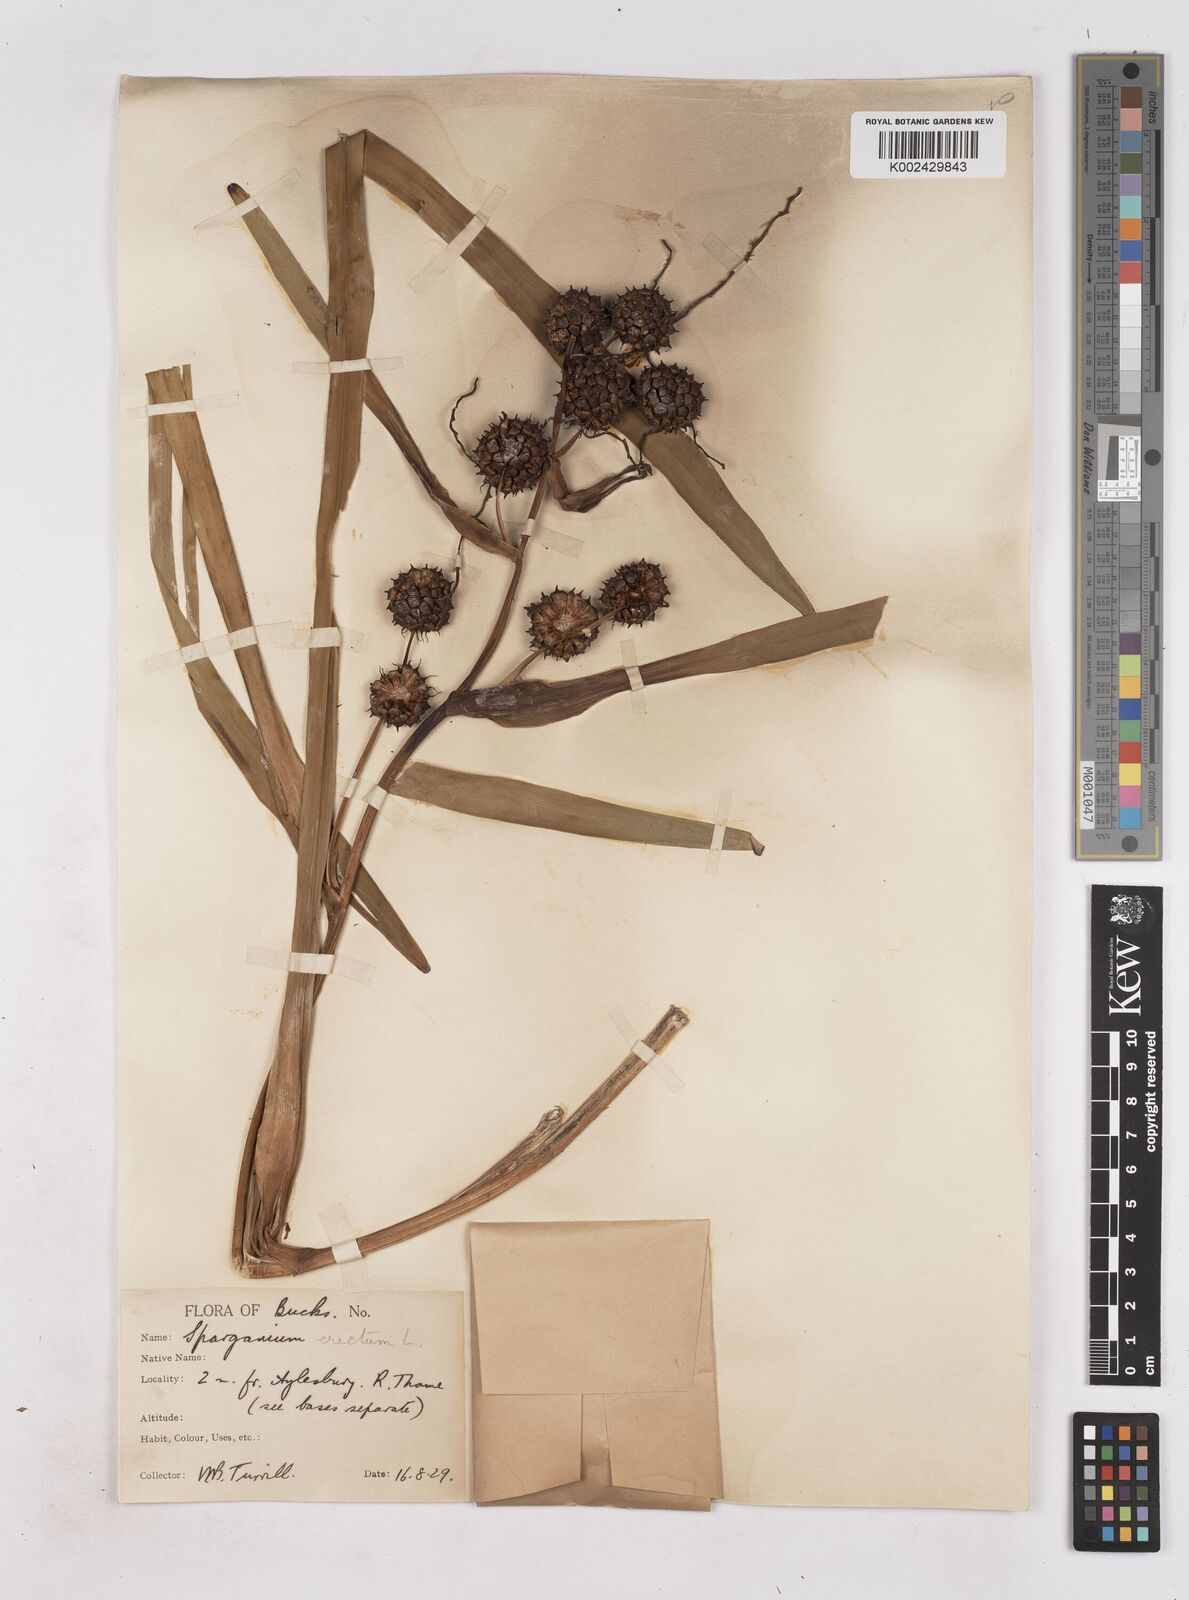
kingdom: Plantae
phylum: Tracheophyta
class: Liliopsida
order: Poales
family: Typhaceae
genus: Sparganium
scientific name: Sparganium erectum
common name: Branched bur-reed
